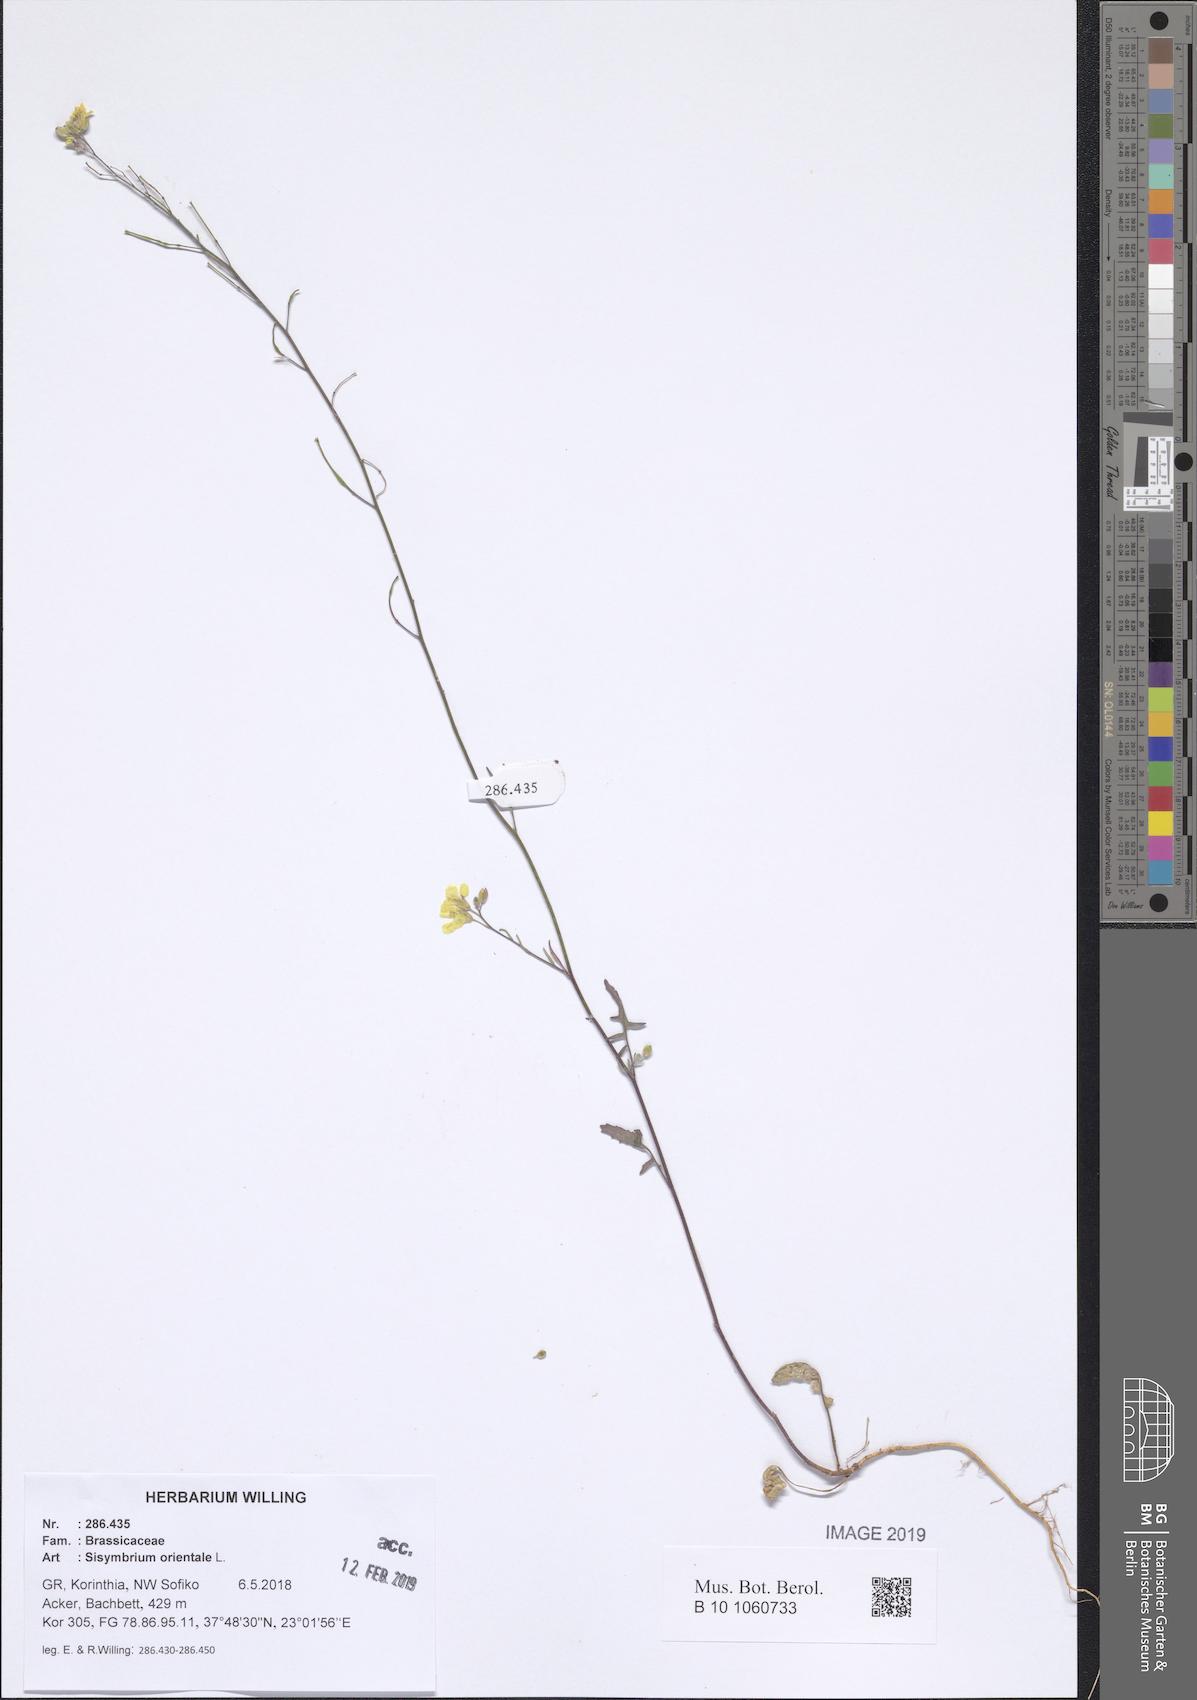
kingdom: Plantae
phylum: Tracheophyta
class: Magnoliopsida
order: Brassicales
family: Brassicaceae
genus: Sisymbrium
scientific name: Sisymbrium orientale
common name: Eastern rocket
